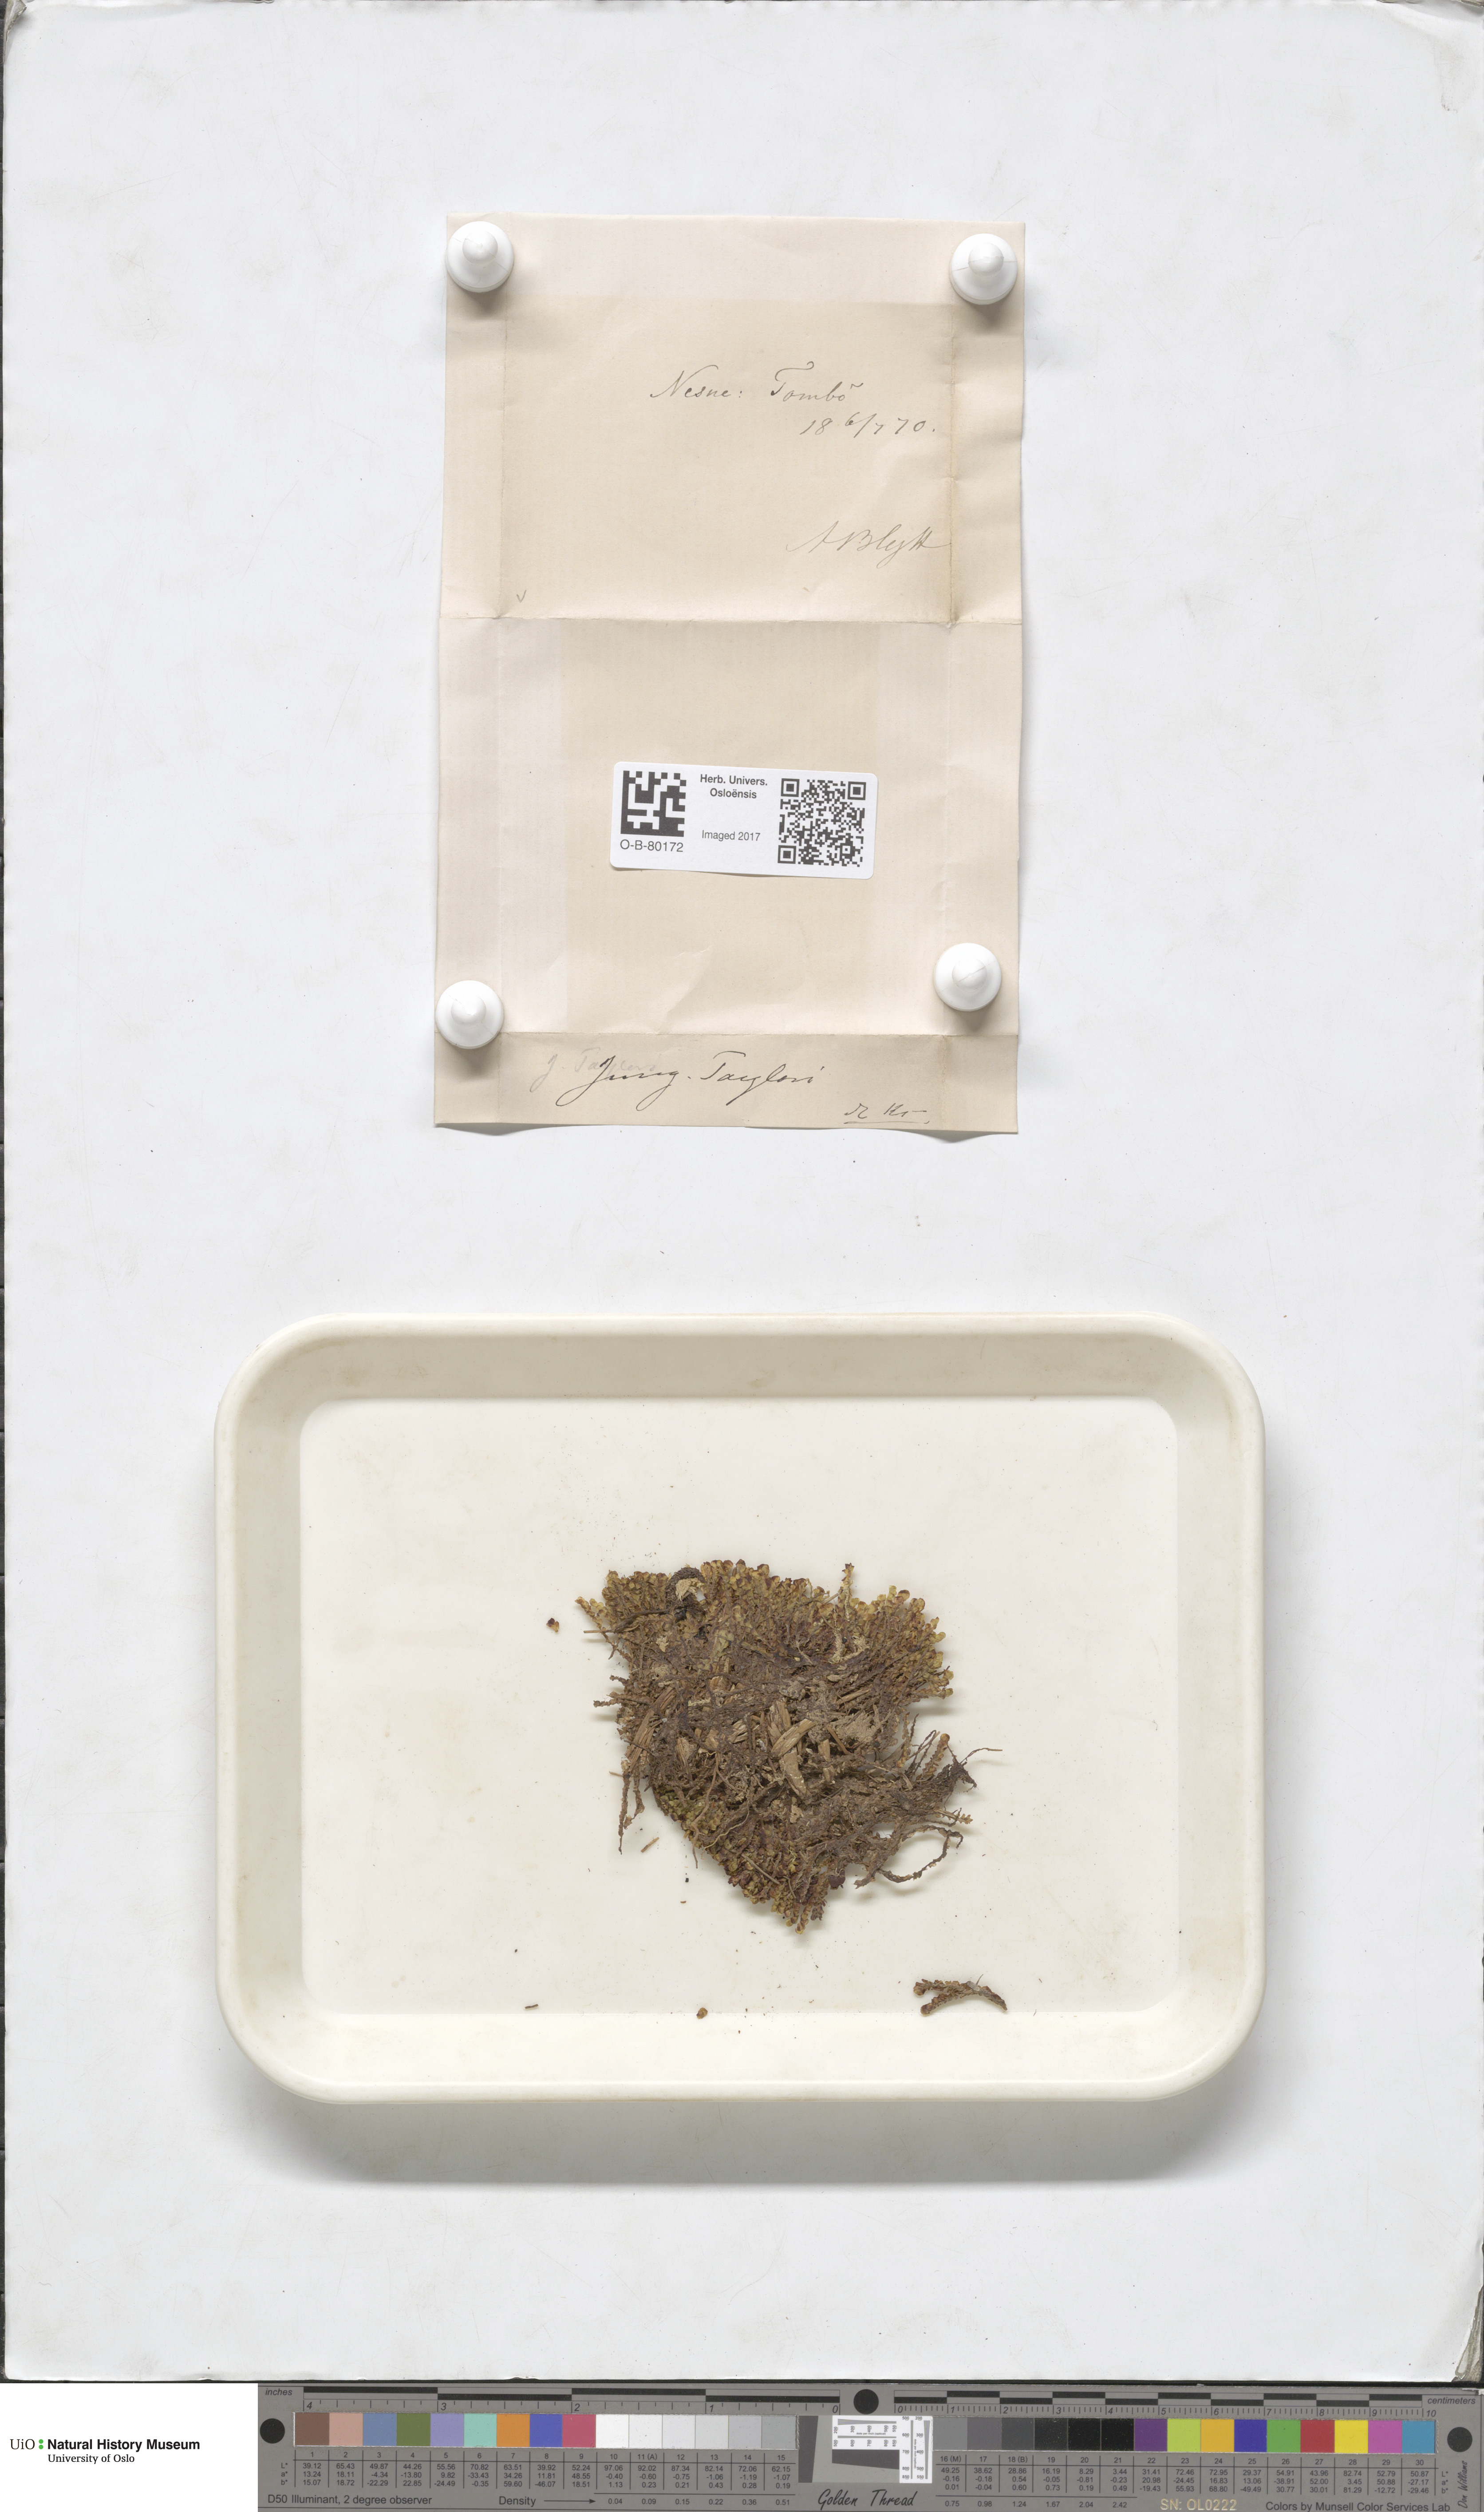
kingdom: Plantae
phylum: Marchantiophyta
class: Jungermanniopsida
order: Jungermanniales
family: Myliaceae
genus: Mylia
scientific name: Mylia taylorii
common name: Taylor s flapwort
